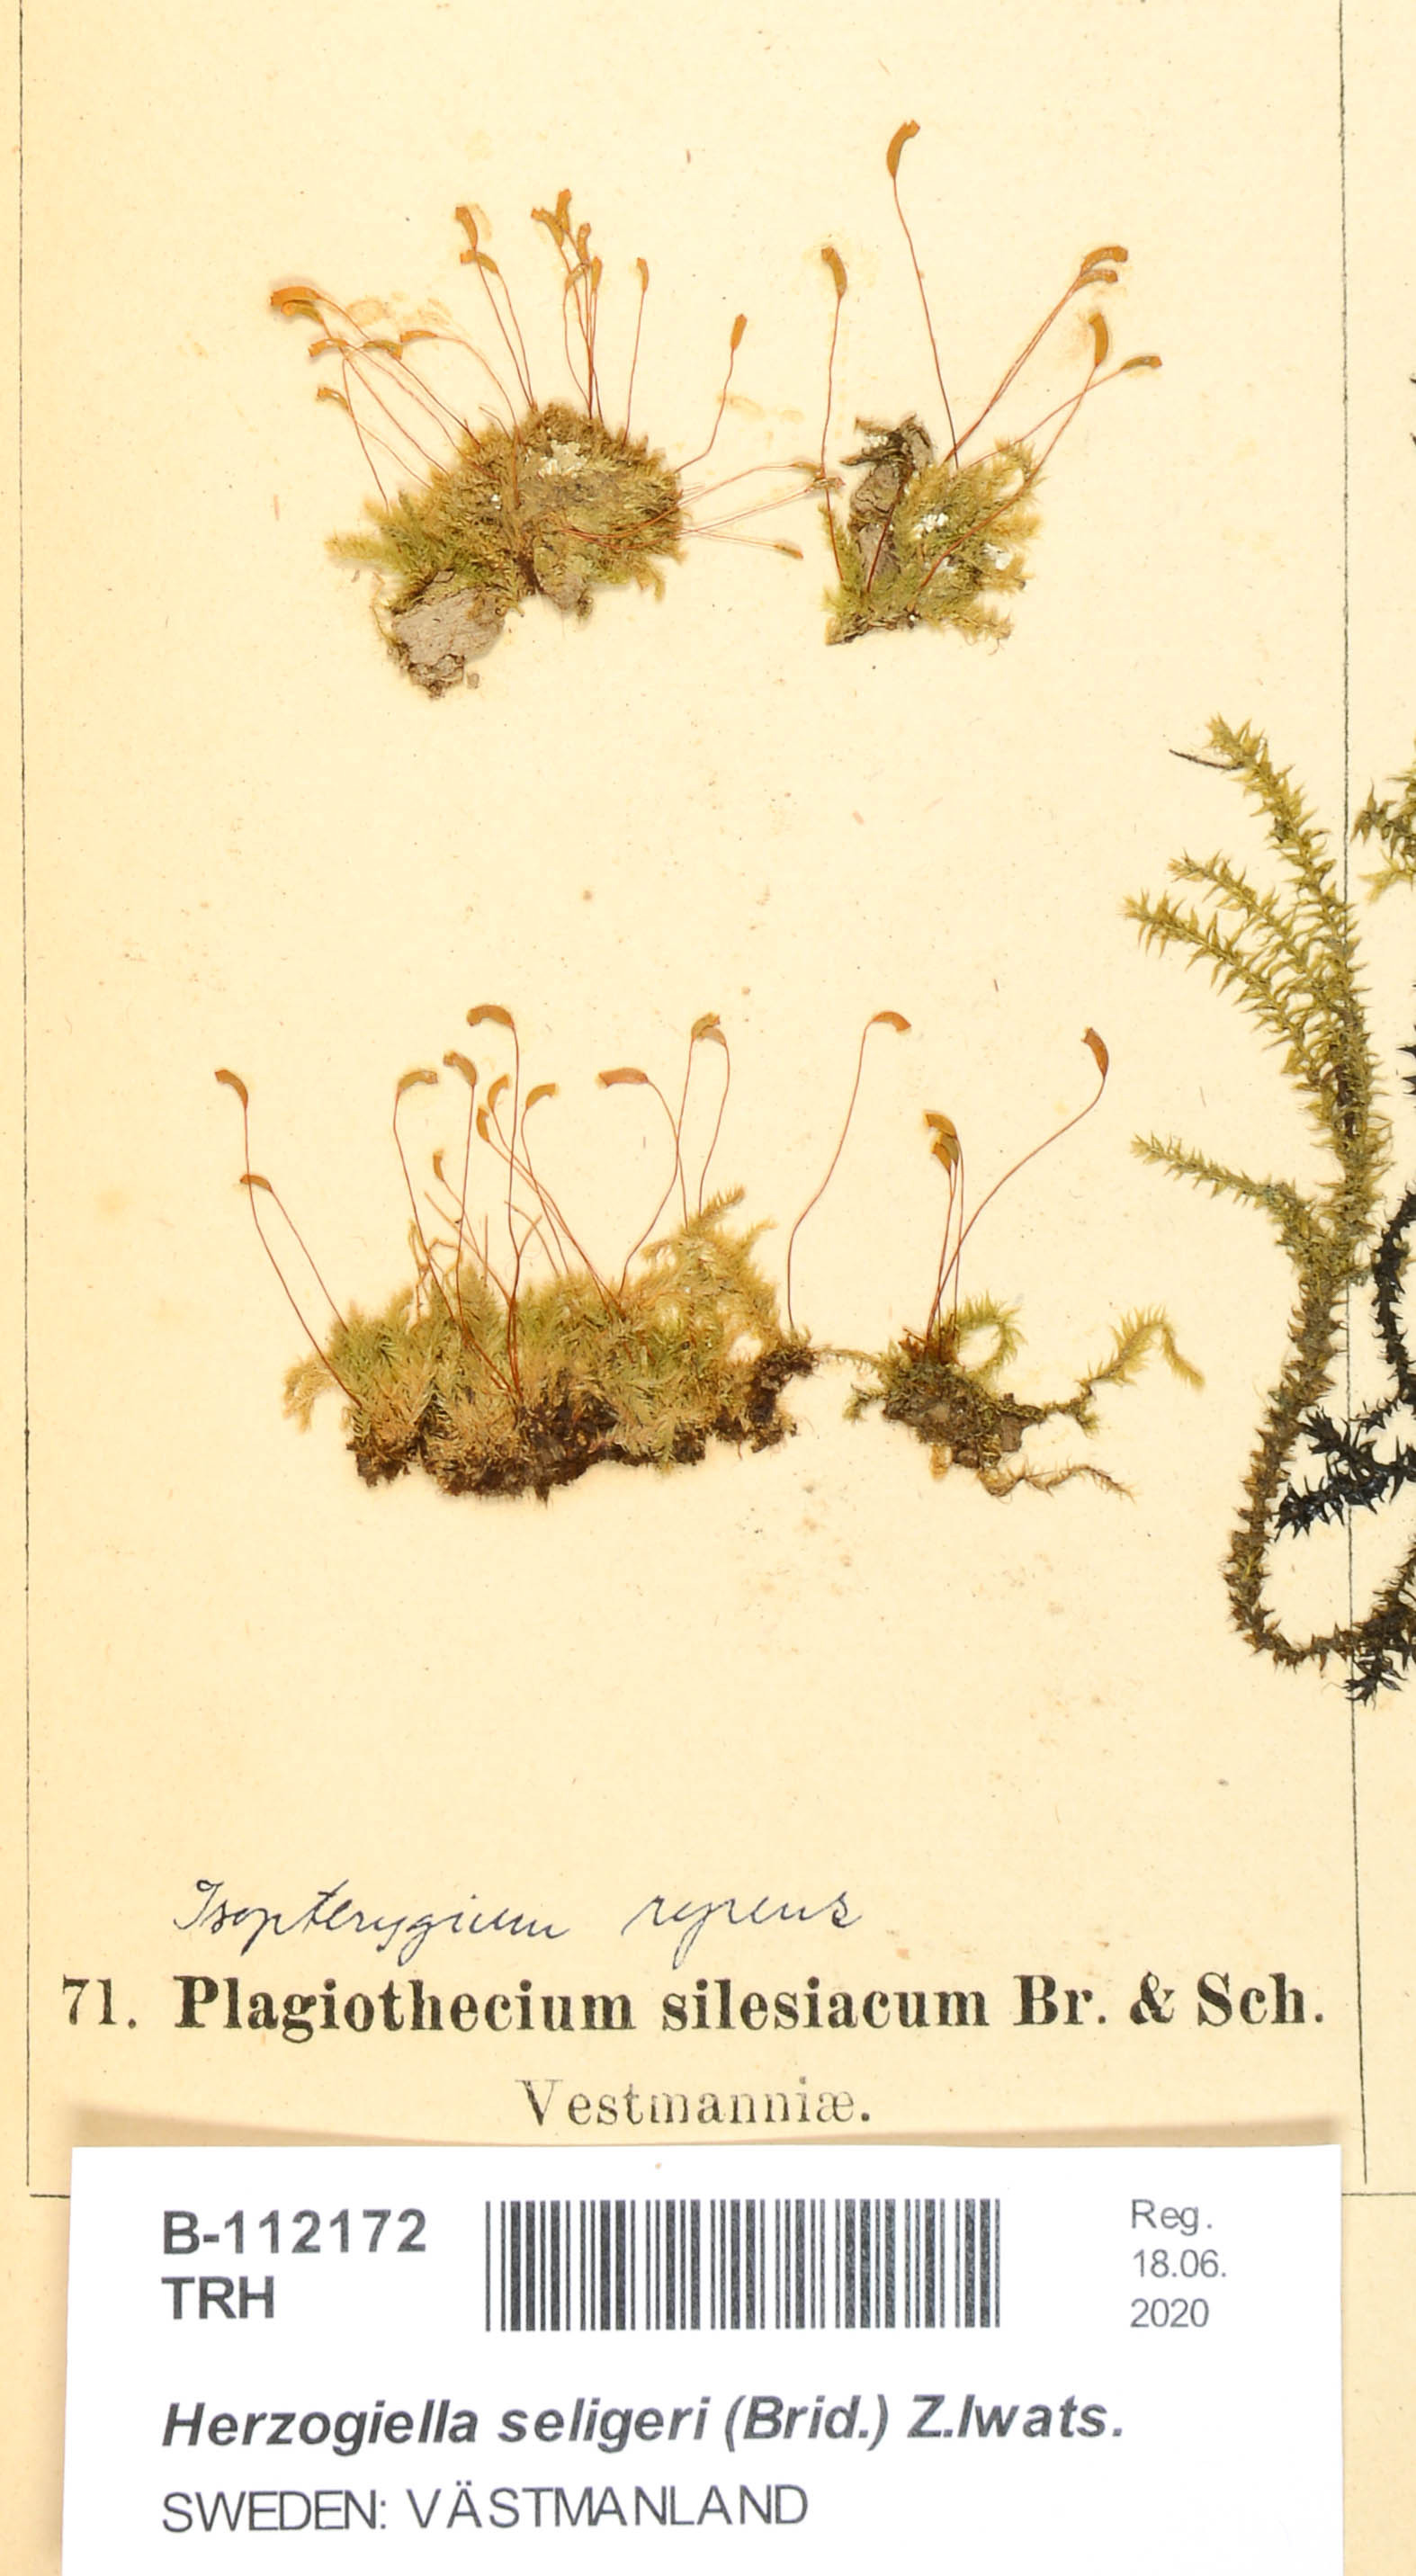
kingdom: Plantae
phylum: Bryophyta
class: Bryopsida
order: Hypnales
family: Plagiotheciaceae
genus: Herzogiella
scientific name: Herzogiella seligeri
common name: Silesian feather-moss
